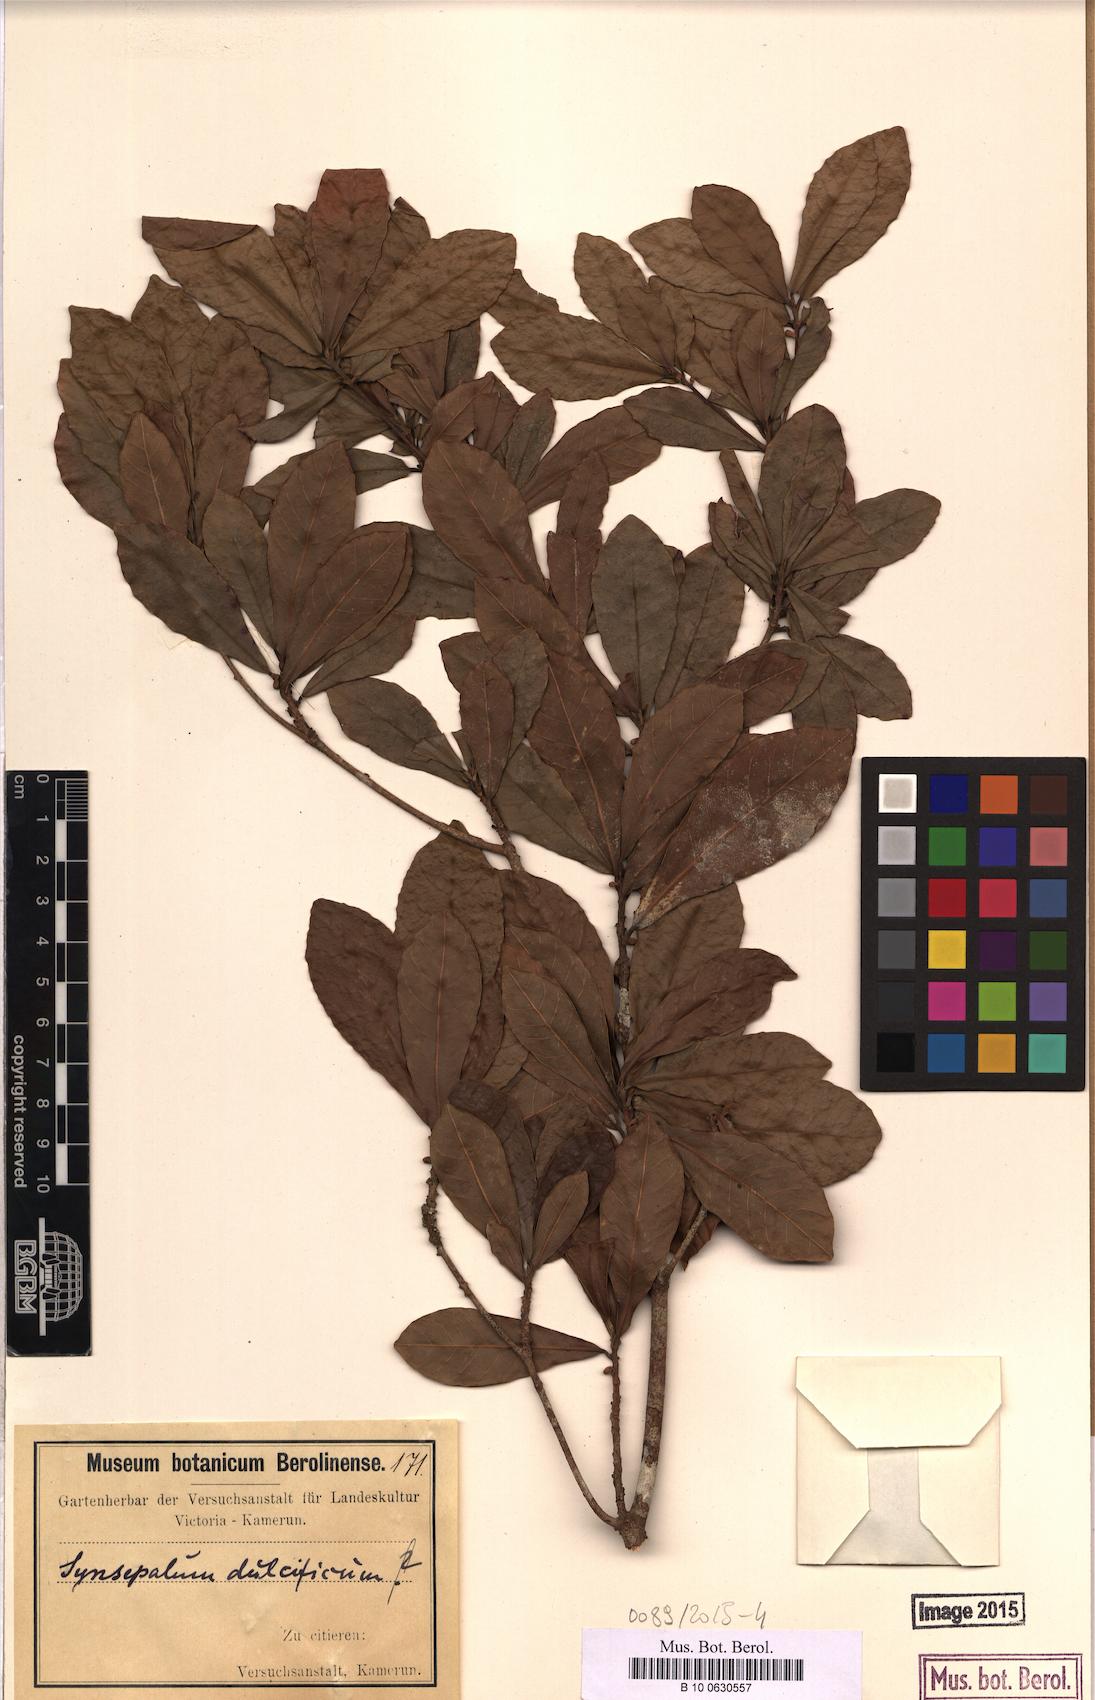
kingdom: Plantae
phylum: Tracheophyta
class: Magnoliopsida
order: Ericales
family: Sapotaceae
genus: Synsepalum
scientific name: Synsepalum dulcificum
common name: Miracle-fruit
